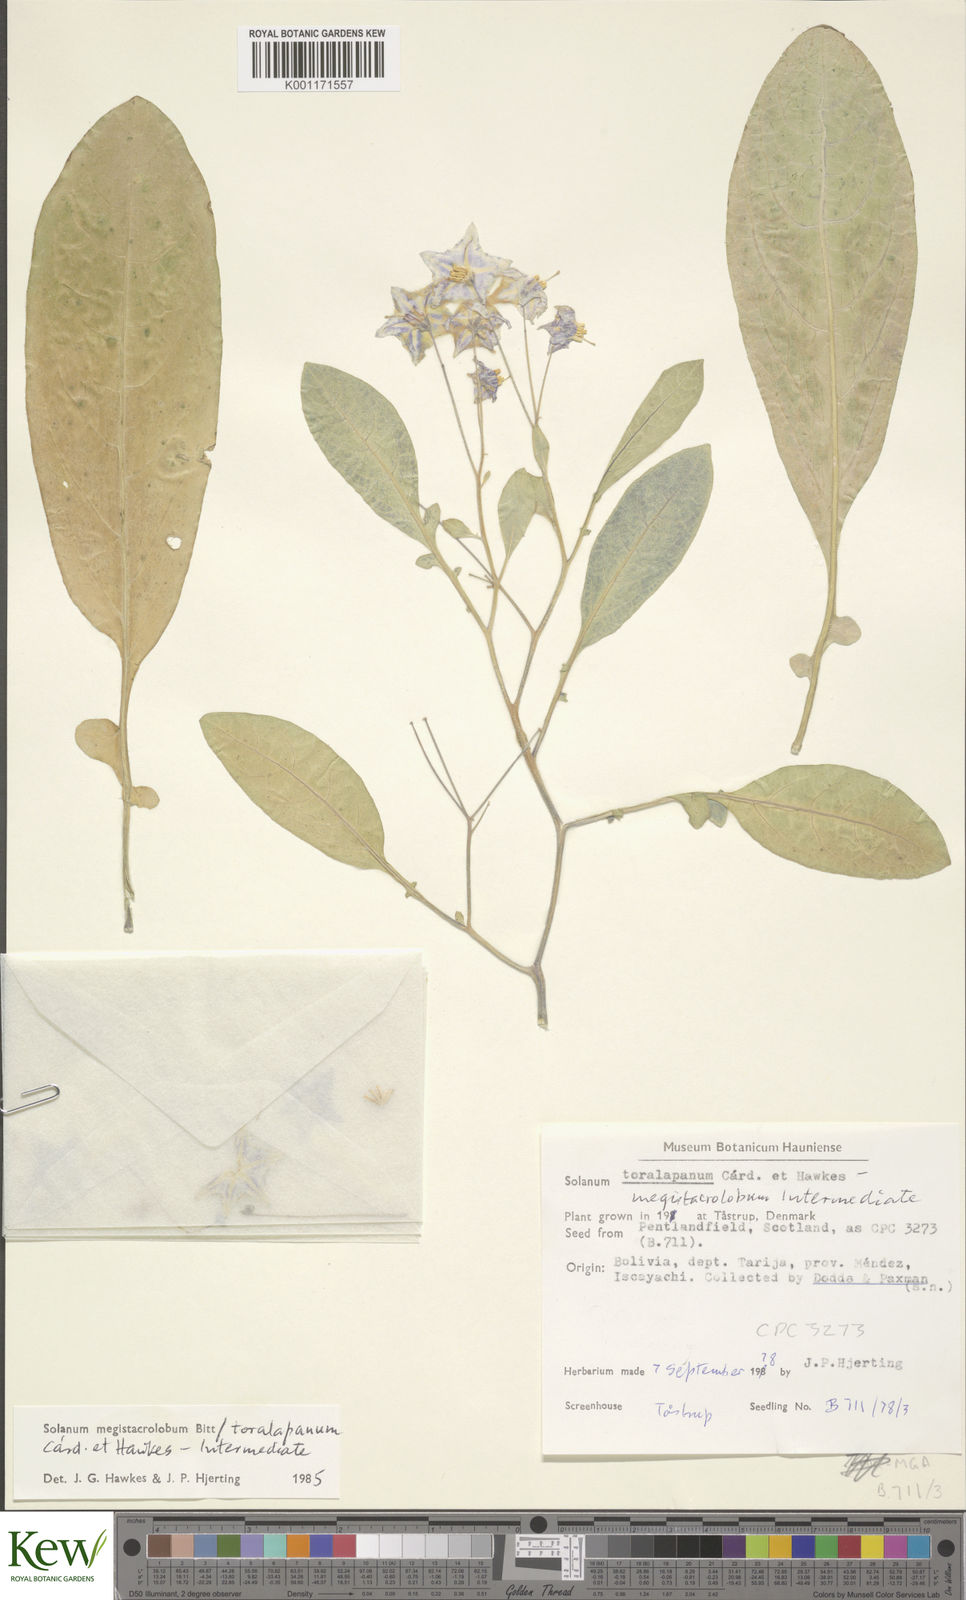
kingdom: Plantae
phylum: Tracheophyta
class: Magnoliopsida
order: Solanales
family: Solanaceae
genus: Solanum
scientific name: Solanum
